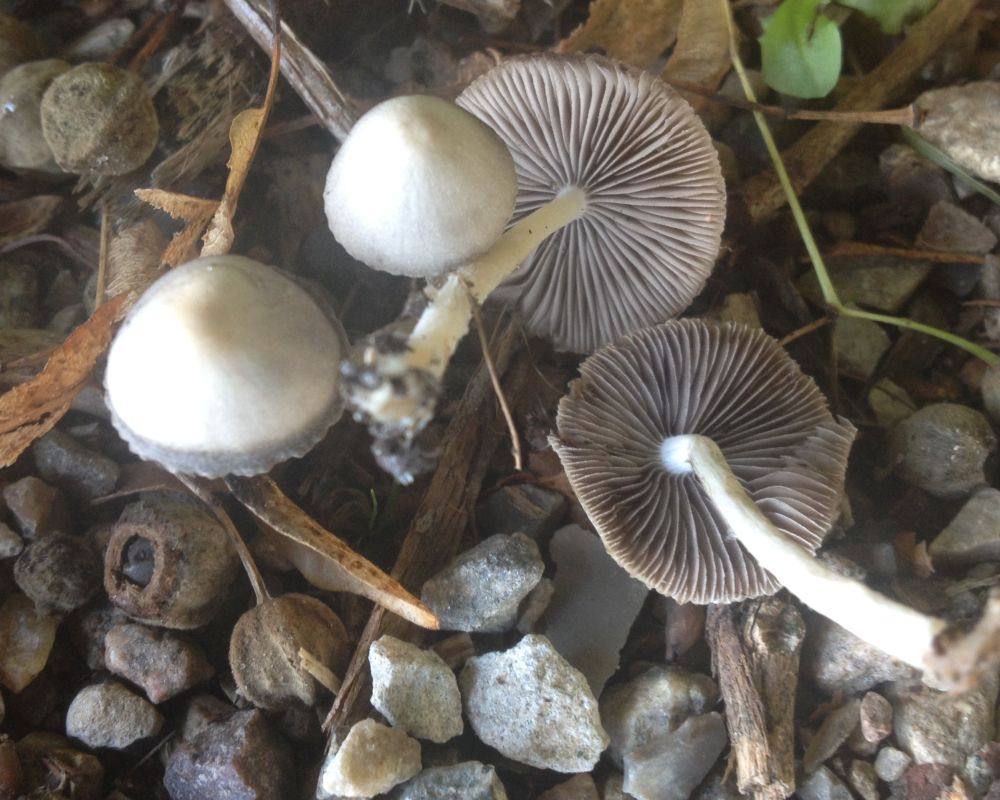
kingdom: Fungi
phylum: Basidiomycota
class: Agaricomycetes
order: Agaricales
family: Psathyrellaceae
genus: Psathyrella
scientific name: Psathyrella
